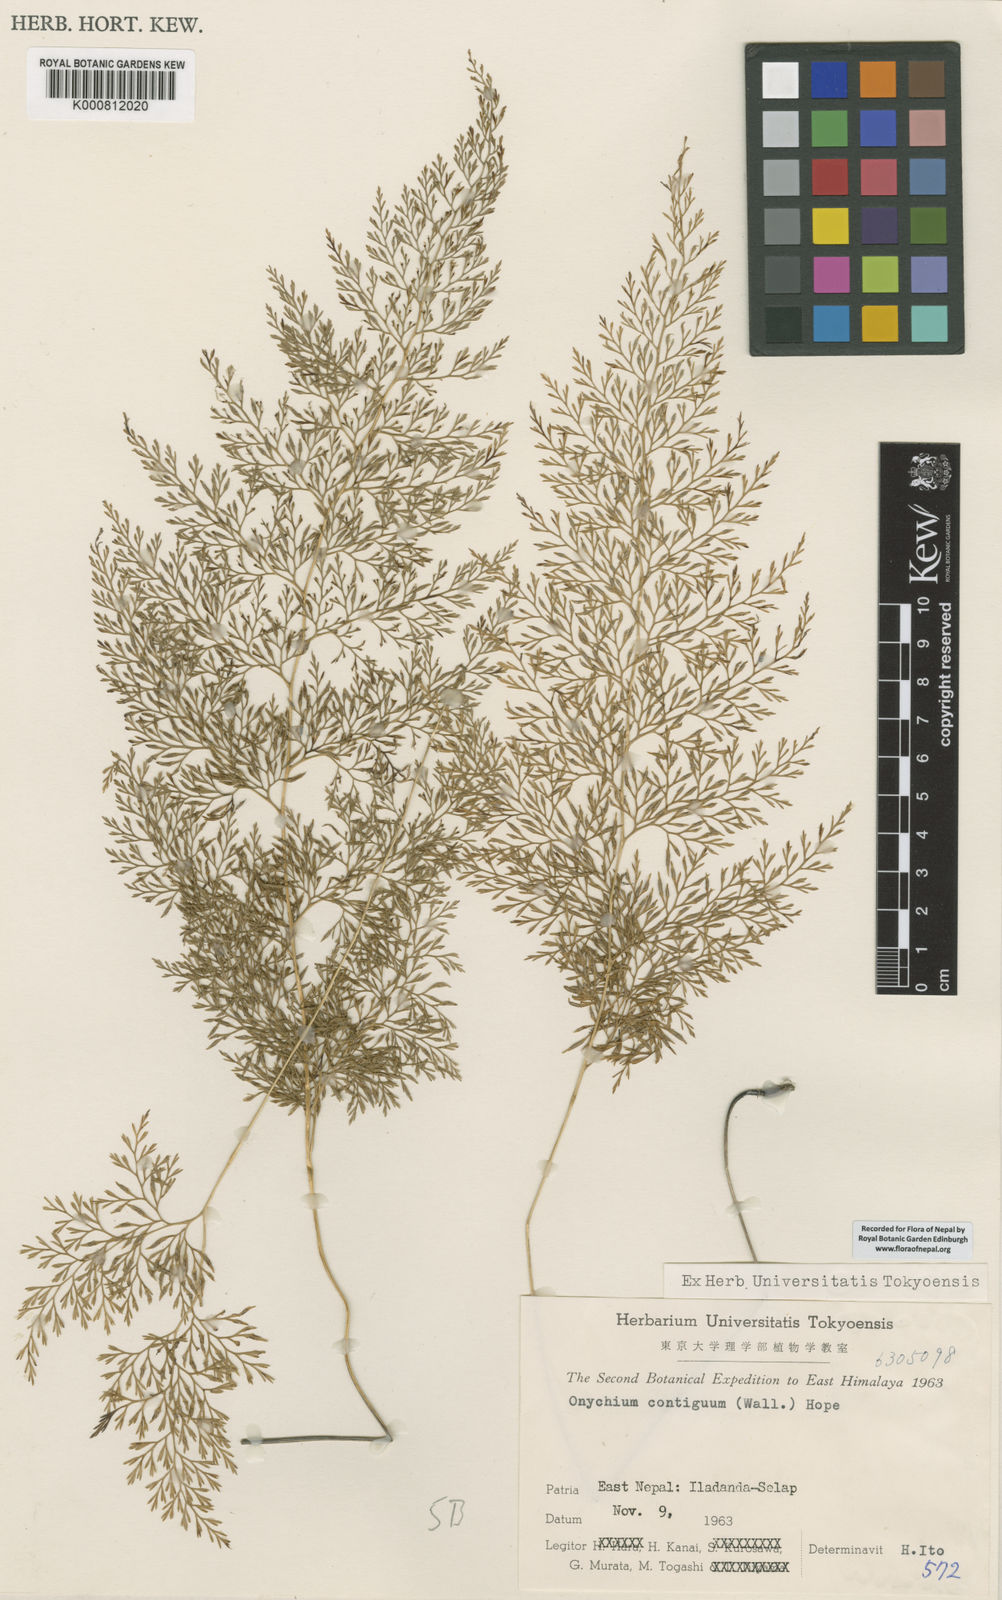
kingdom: Plantae
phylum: Tracheophyta
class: Polypodiopsida
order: Polypodiales
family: Pteridaceae
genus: Onychium
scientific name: Onychium lucidum
